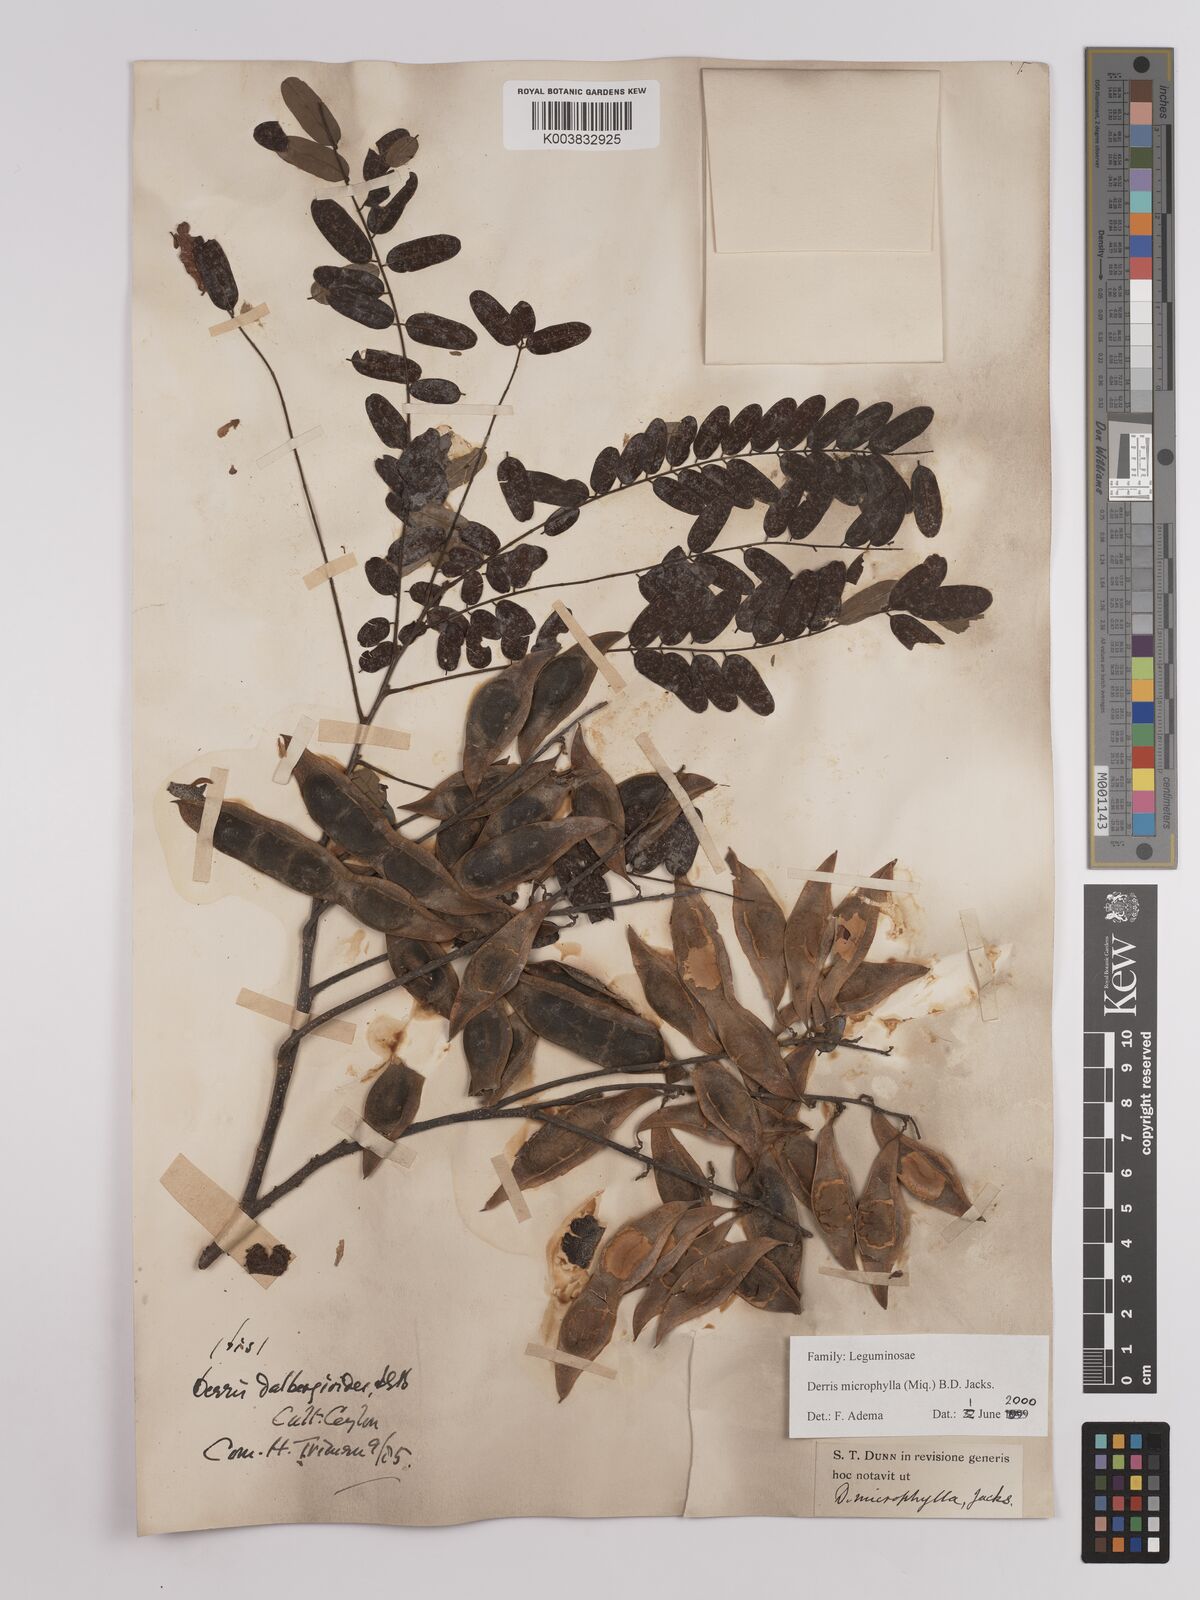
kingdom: Plantae
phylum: Tracheophyta
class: Magnoliopsida
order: Fabales
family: Fabaceae
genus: Brachypterum
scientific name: Brachypterum microphyllum
